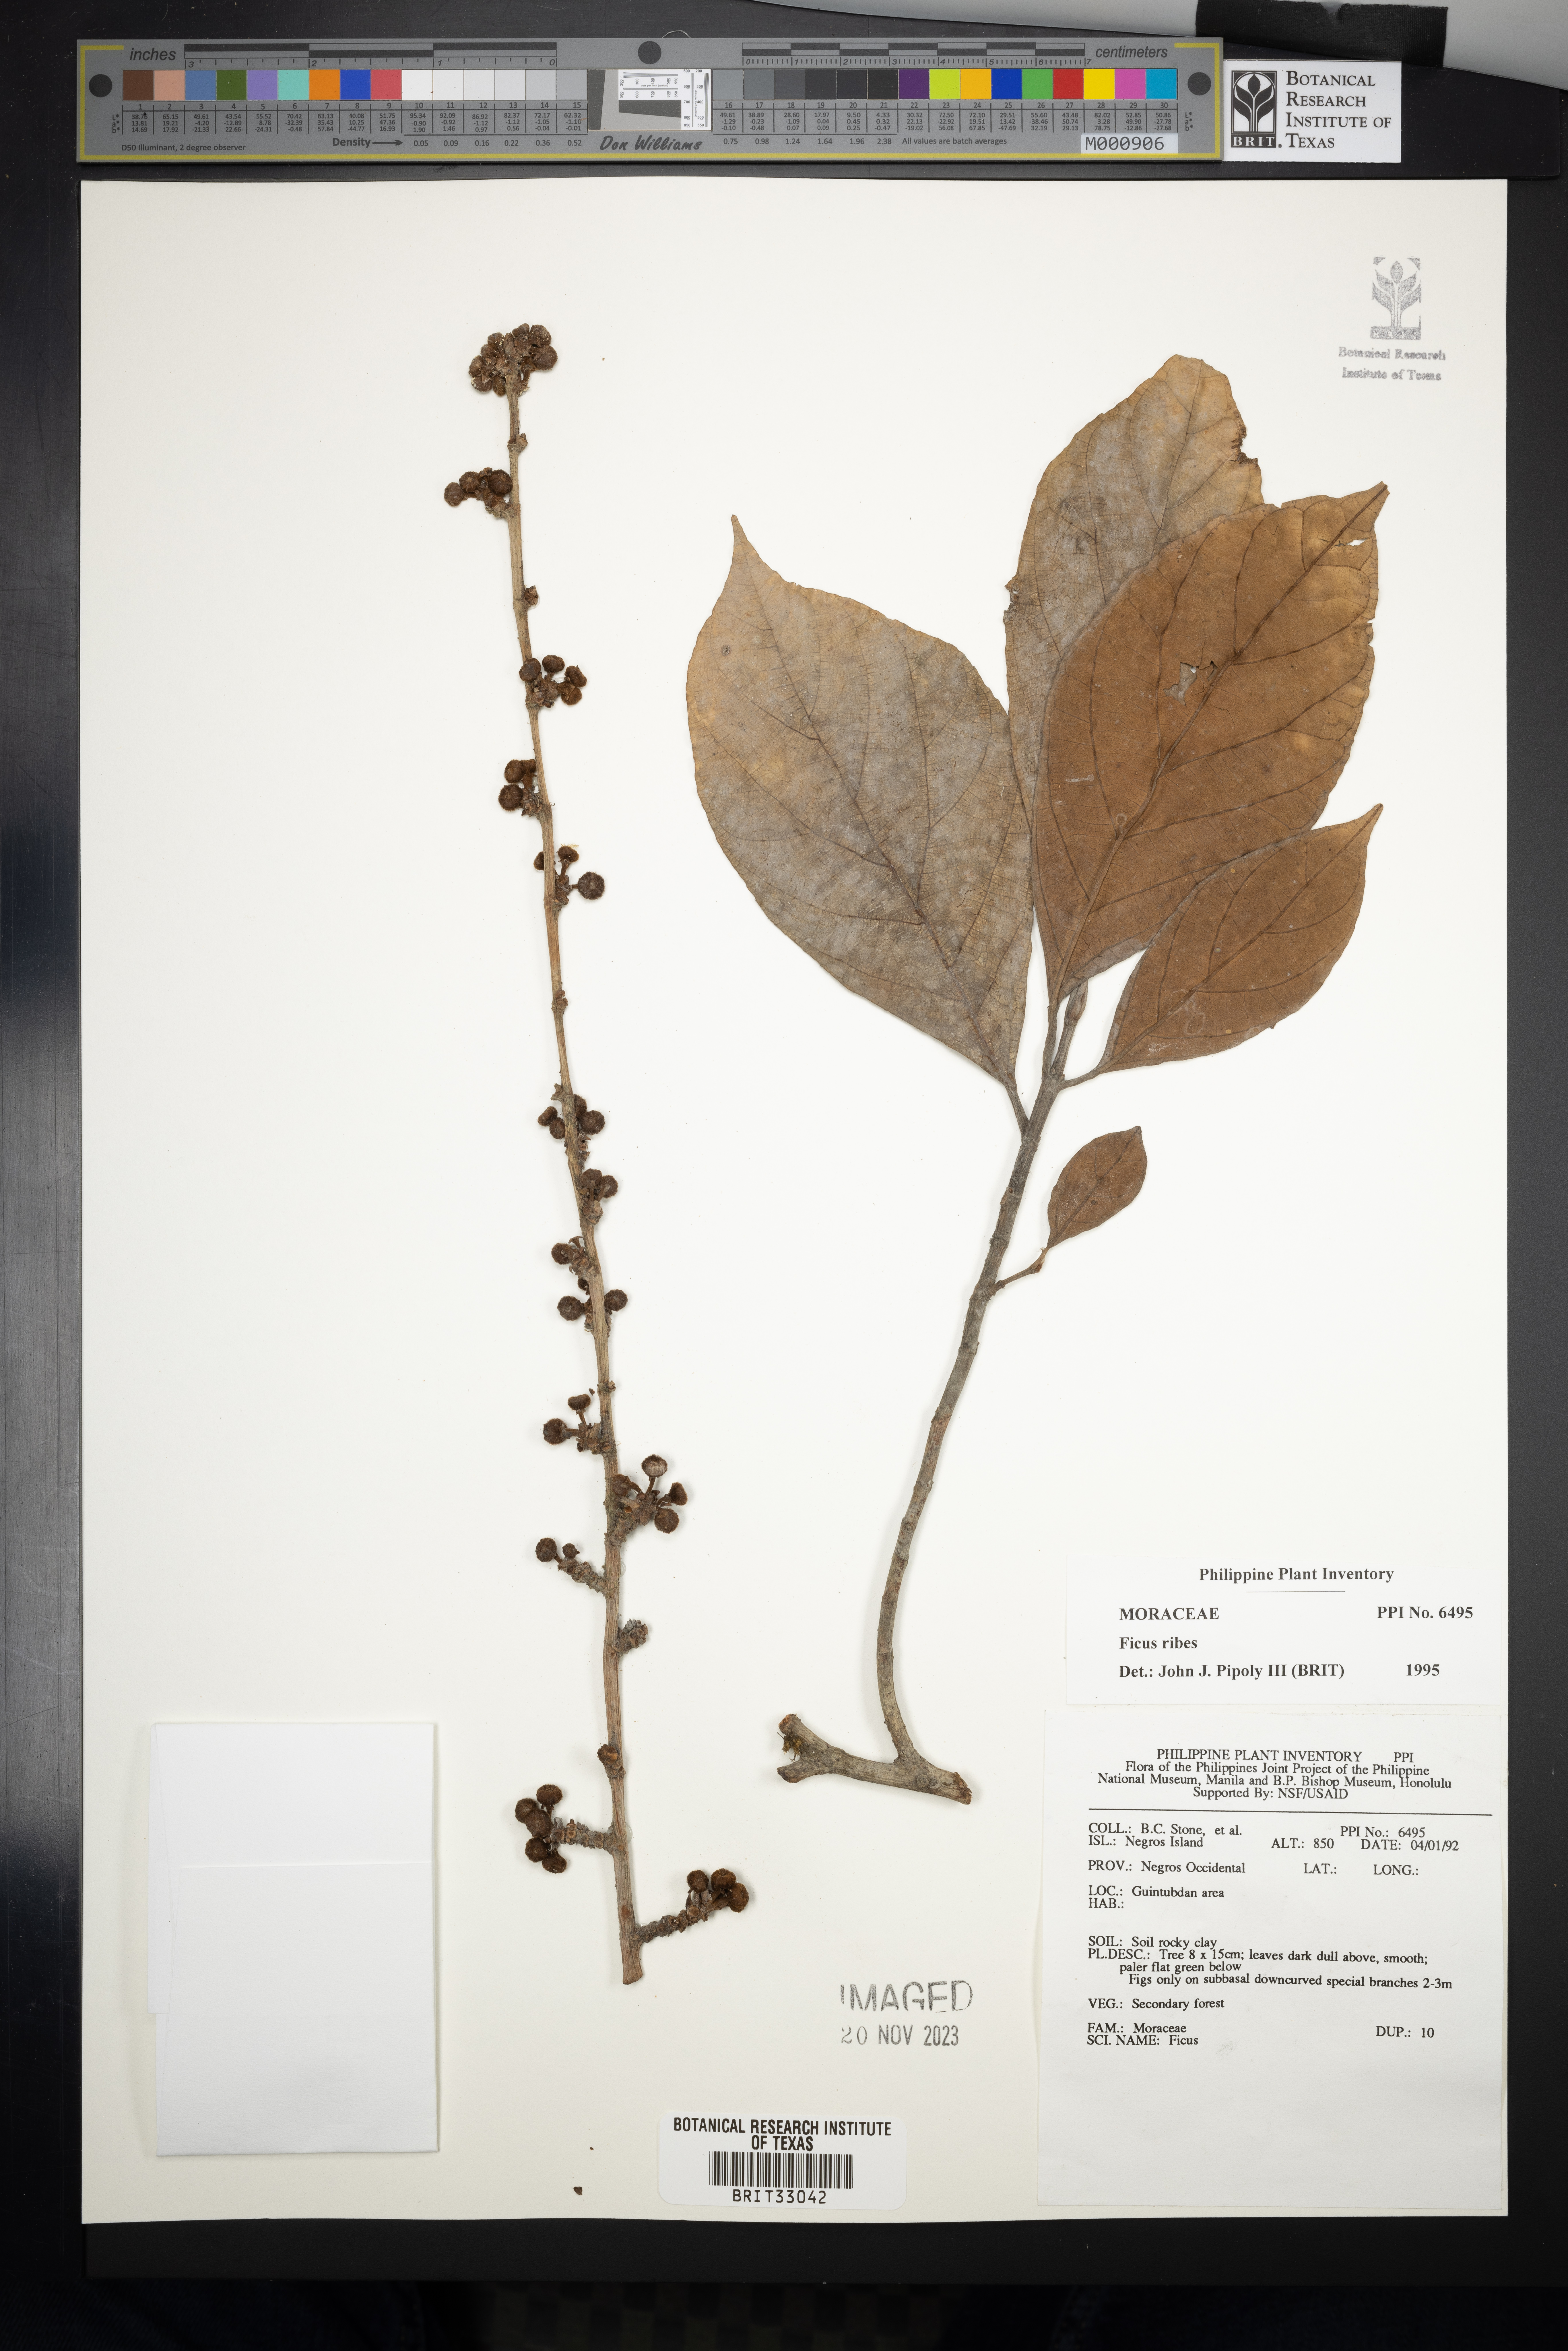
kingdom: Plantae
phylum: Tracheophyta
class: Magnoliopsida
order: Rosales
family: Moraceae
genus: Ficus
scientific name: Ficus ribes
